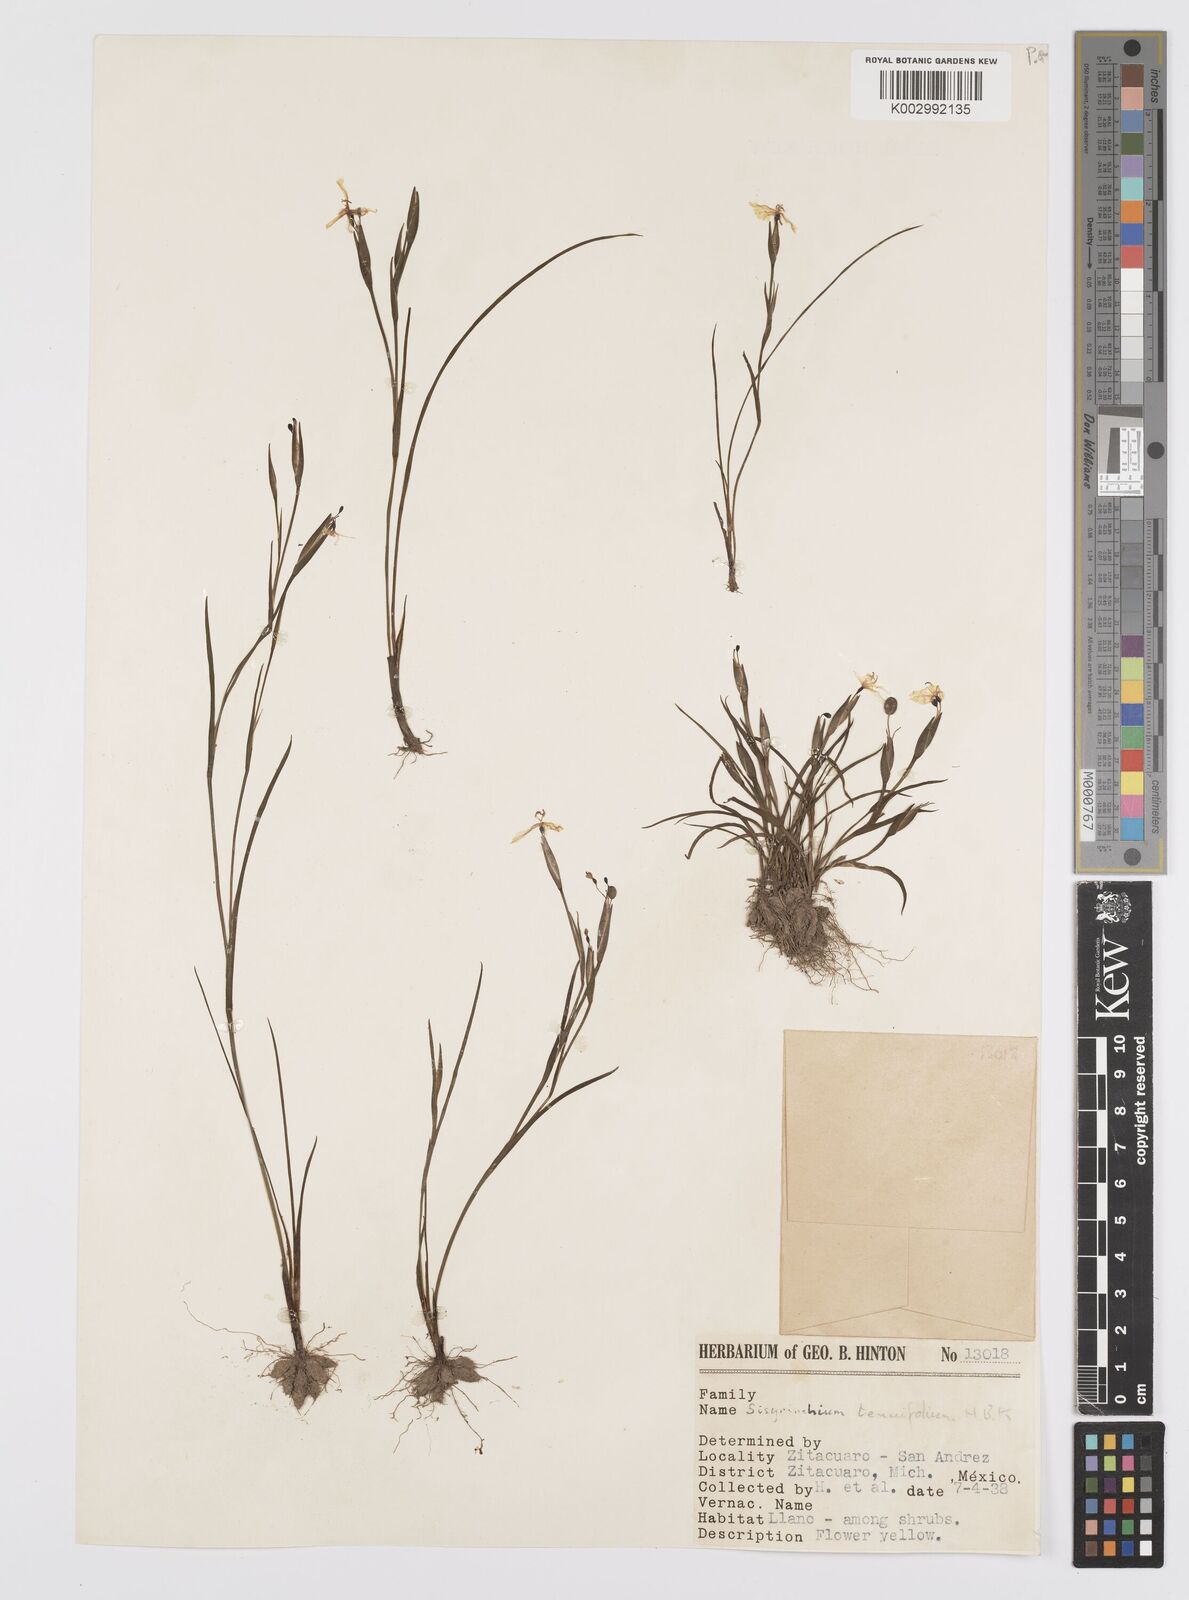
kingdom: Plantae
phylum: Tracheophyta
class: Liliopsida
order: Asparagales
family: Iridaceae
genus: Sisyrinchium
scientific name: Sisyrinchium langloisii
